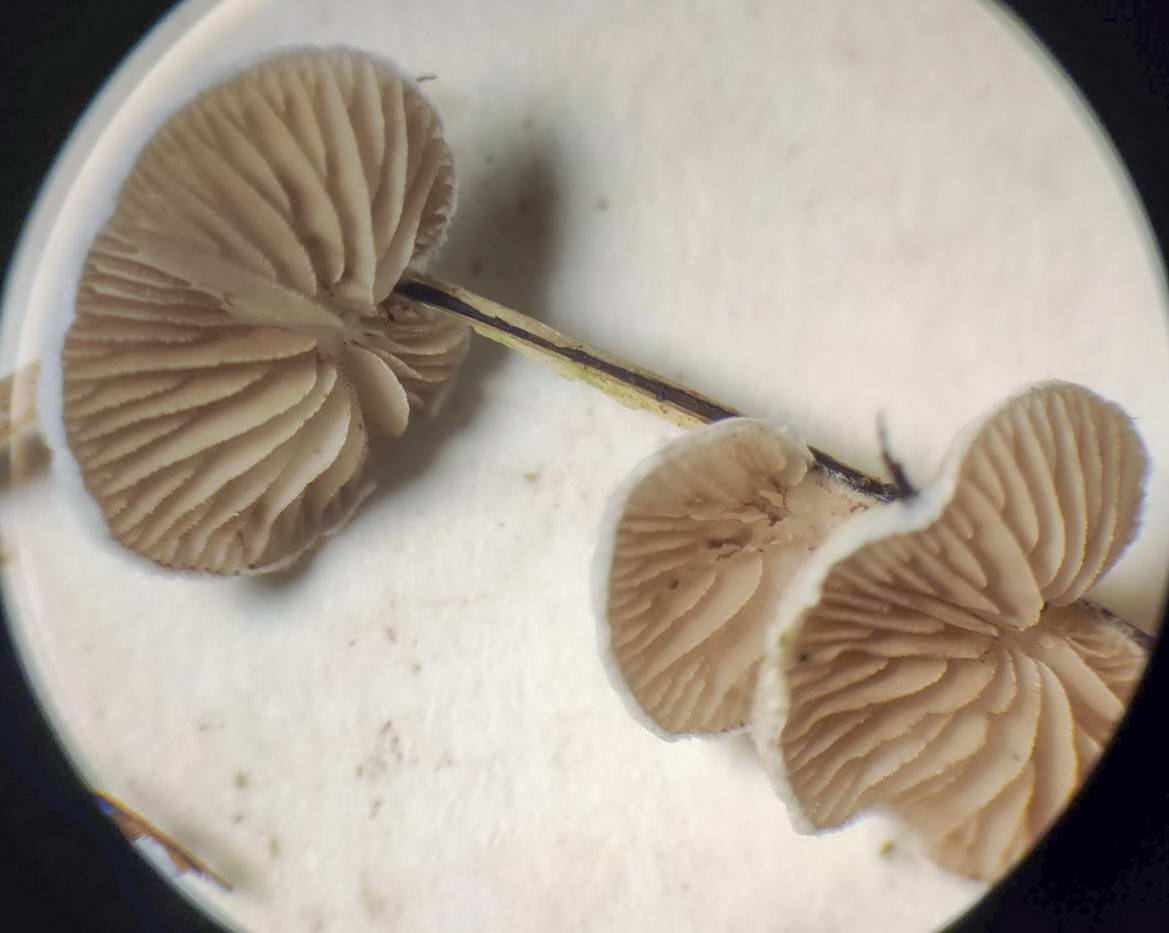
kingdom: Fungi
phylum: Basidiomycota
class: Agaricomycetes
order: Agaricales
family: Crepidotaceae
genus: Crepidotus
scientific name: Crepidotus
